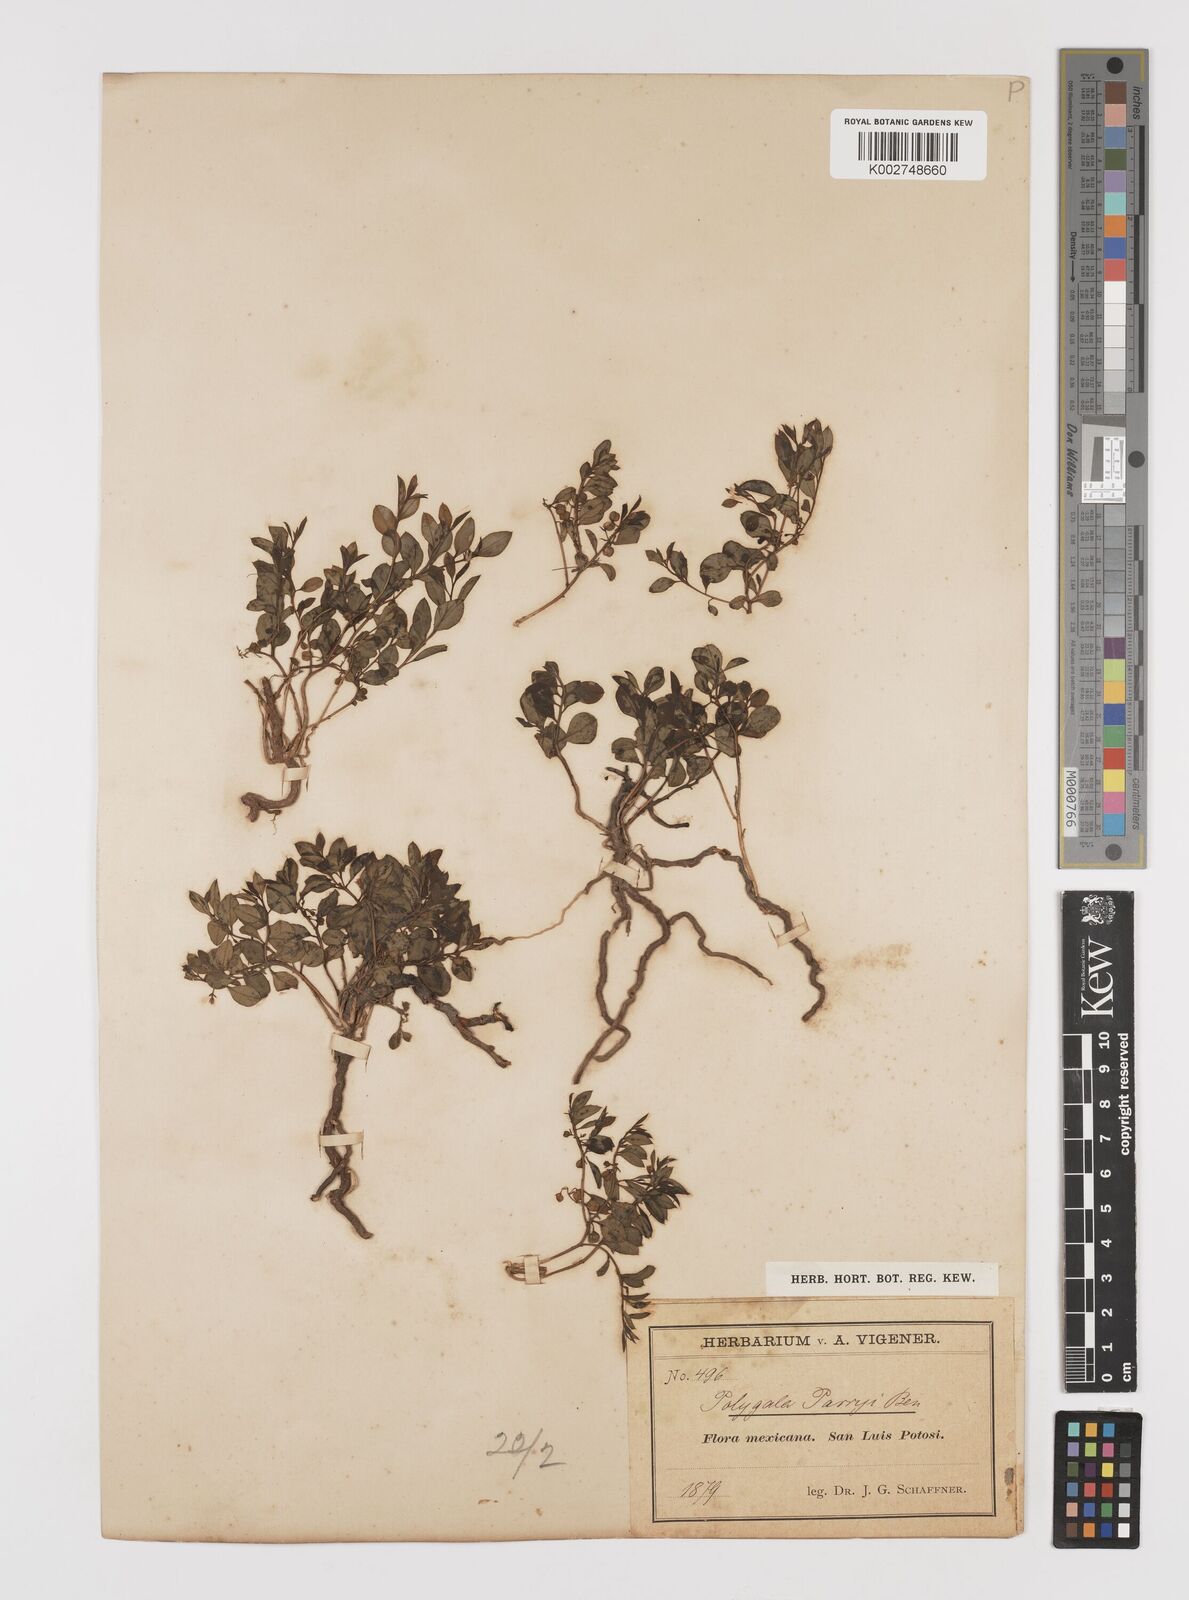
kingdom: Plantae
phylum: Tracheophyta
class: Magnoliopsida
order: Fabales
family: Polygalaceae
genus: Rhinotropis
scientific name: Rhinotropis parryi
